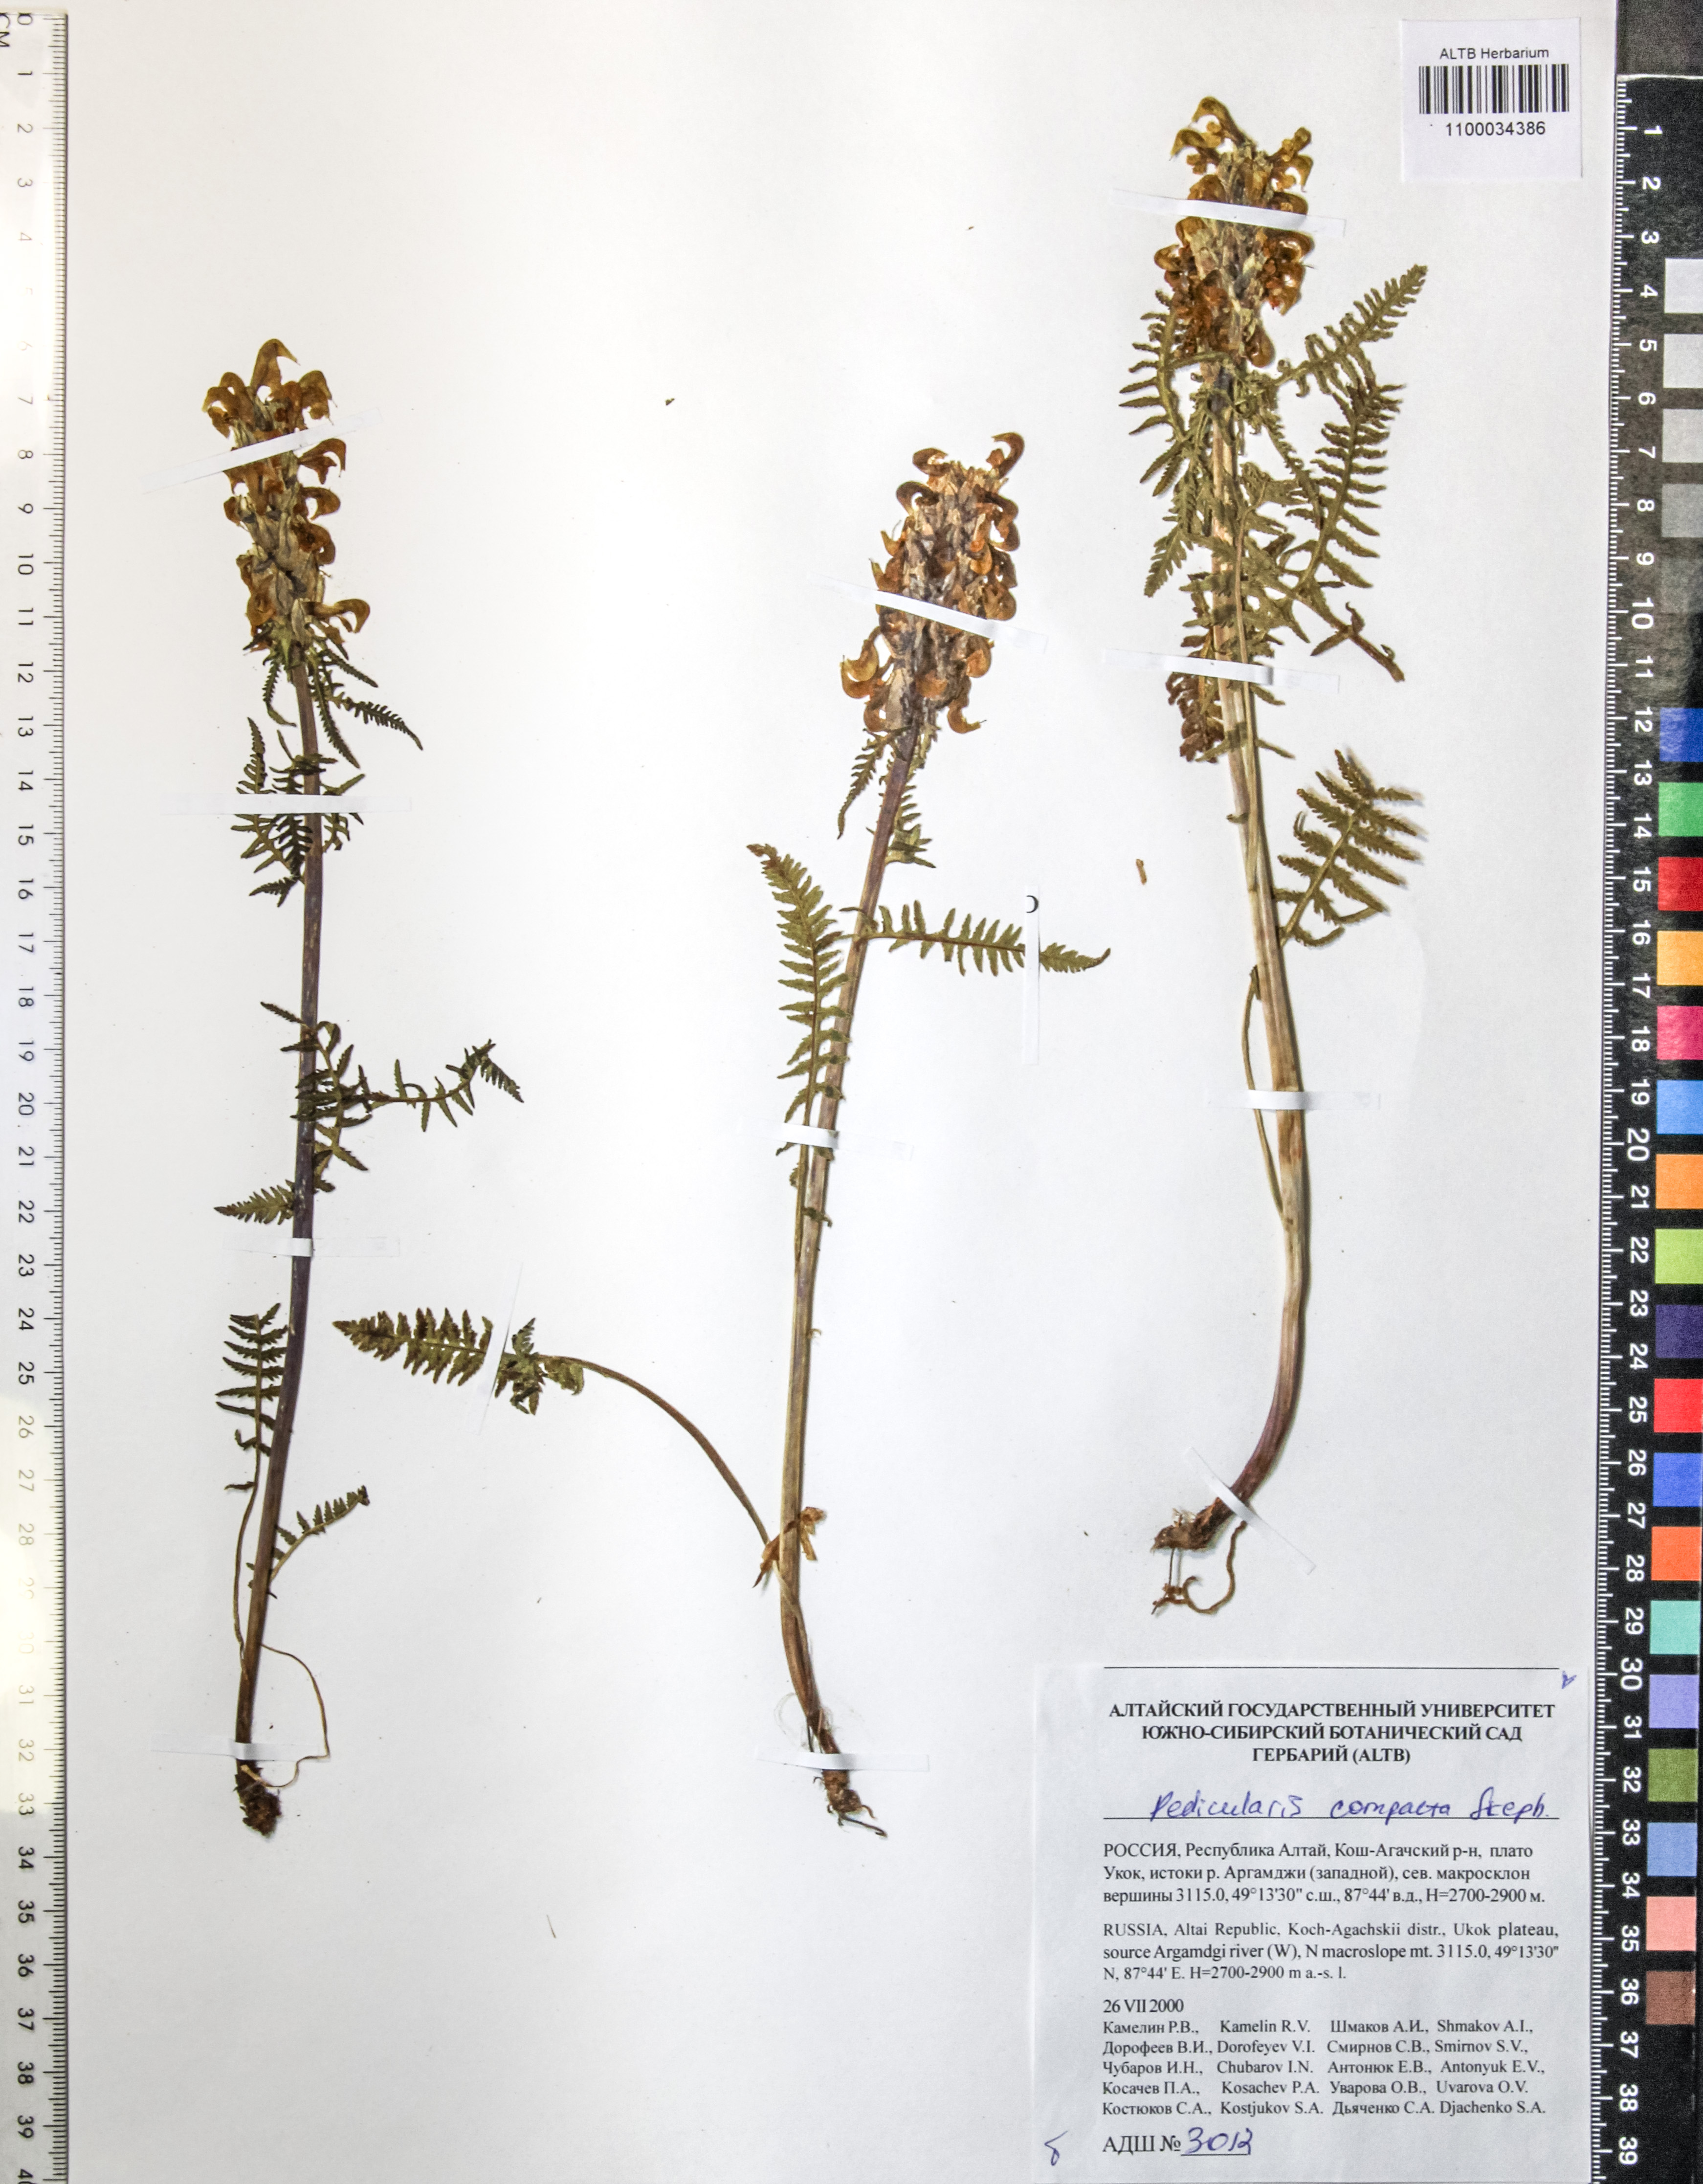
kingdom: Plantae
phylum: Tracheophyta
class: Magnoliopsida
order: Lamiales
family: Orobanchaceae
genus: Pedicularis
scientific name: Pedicularis compacta
